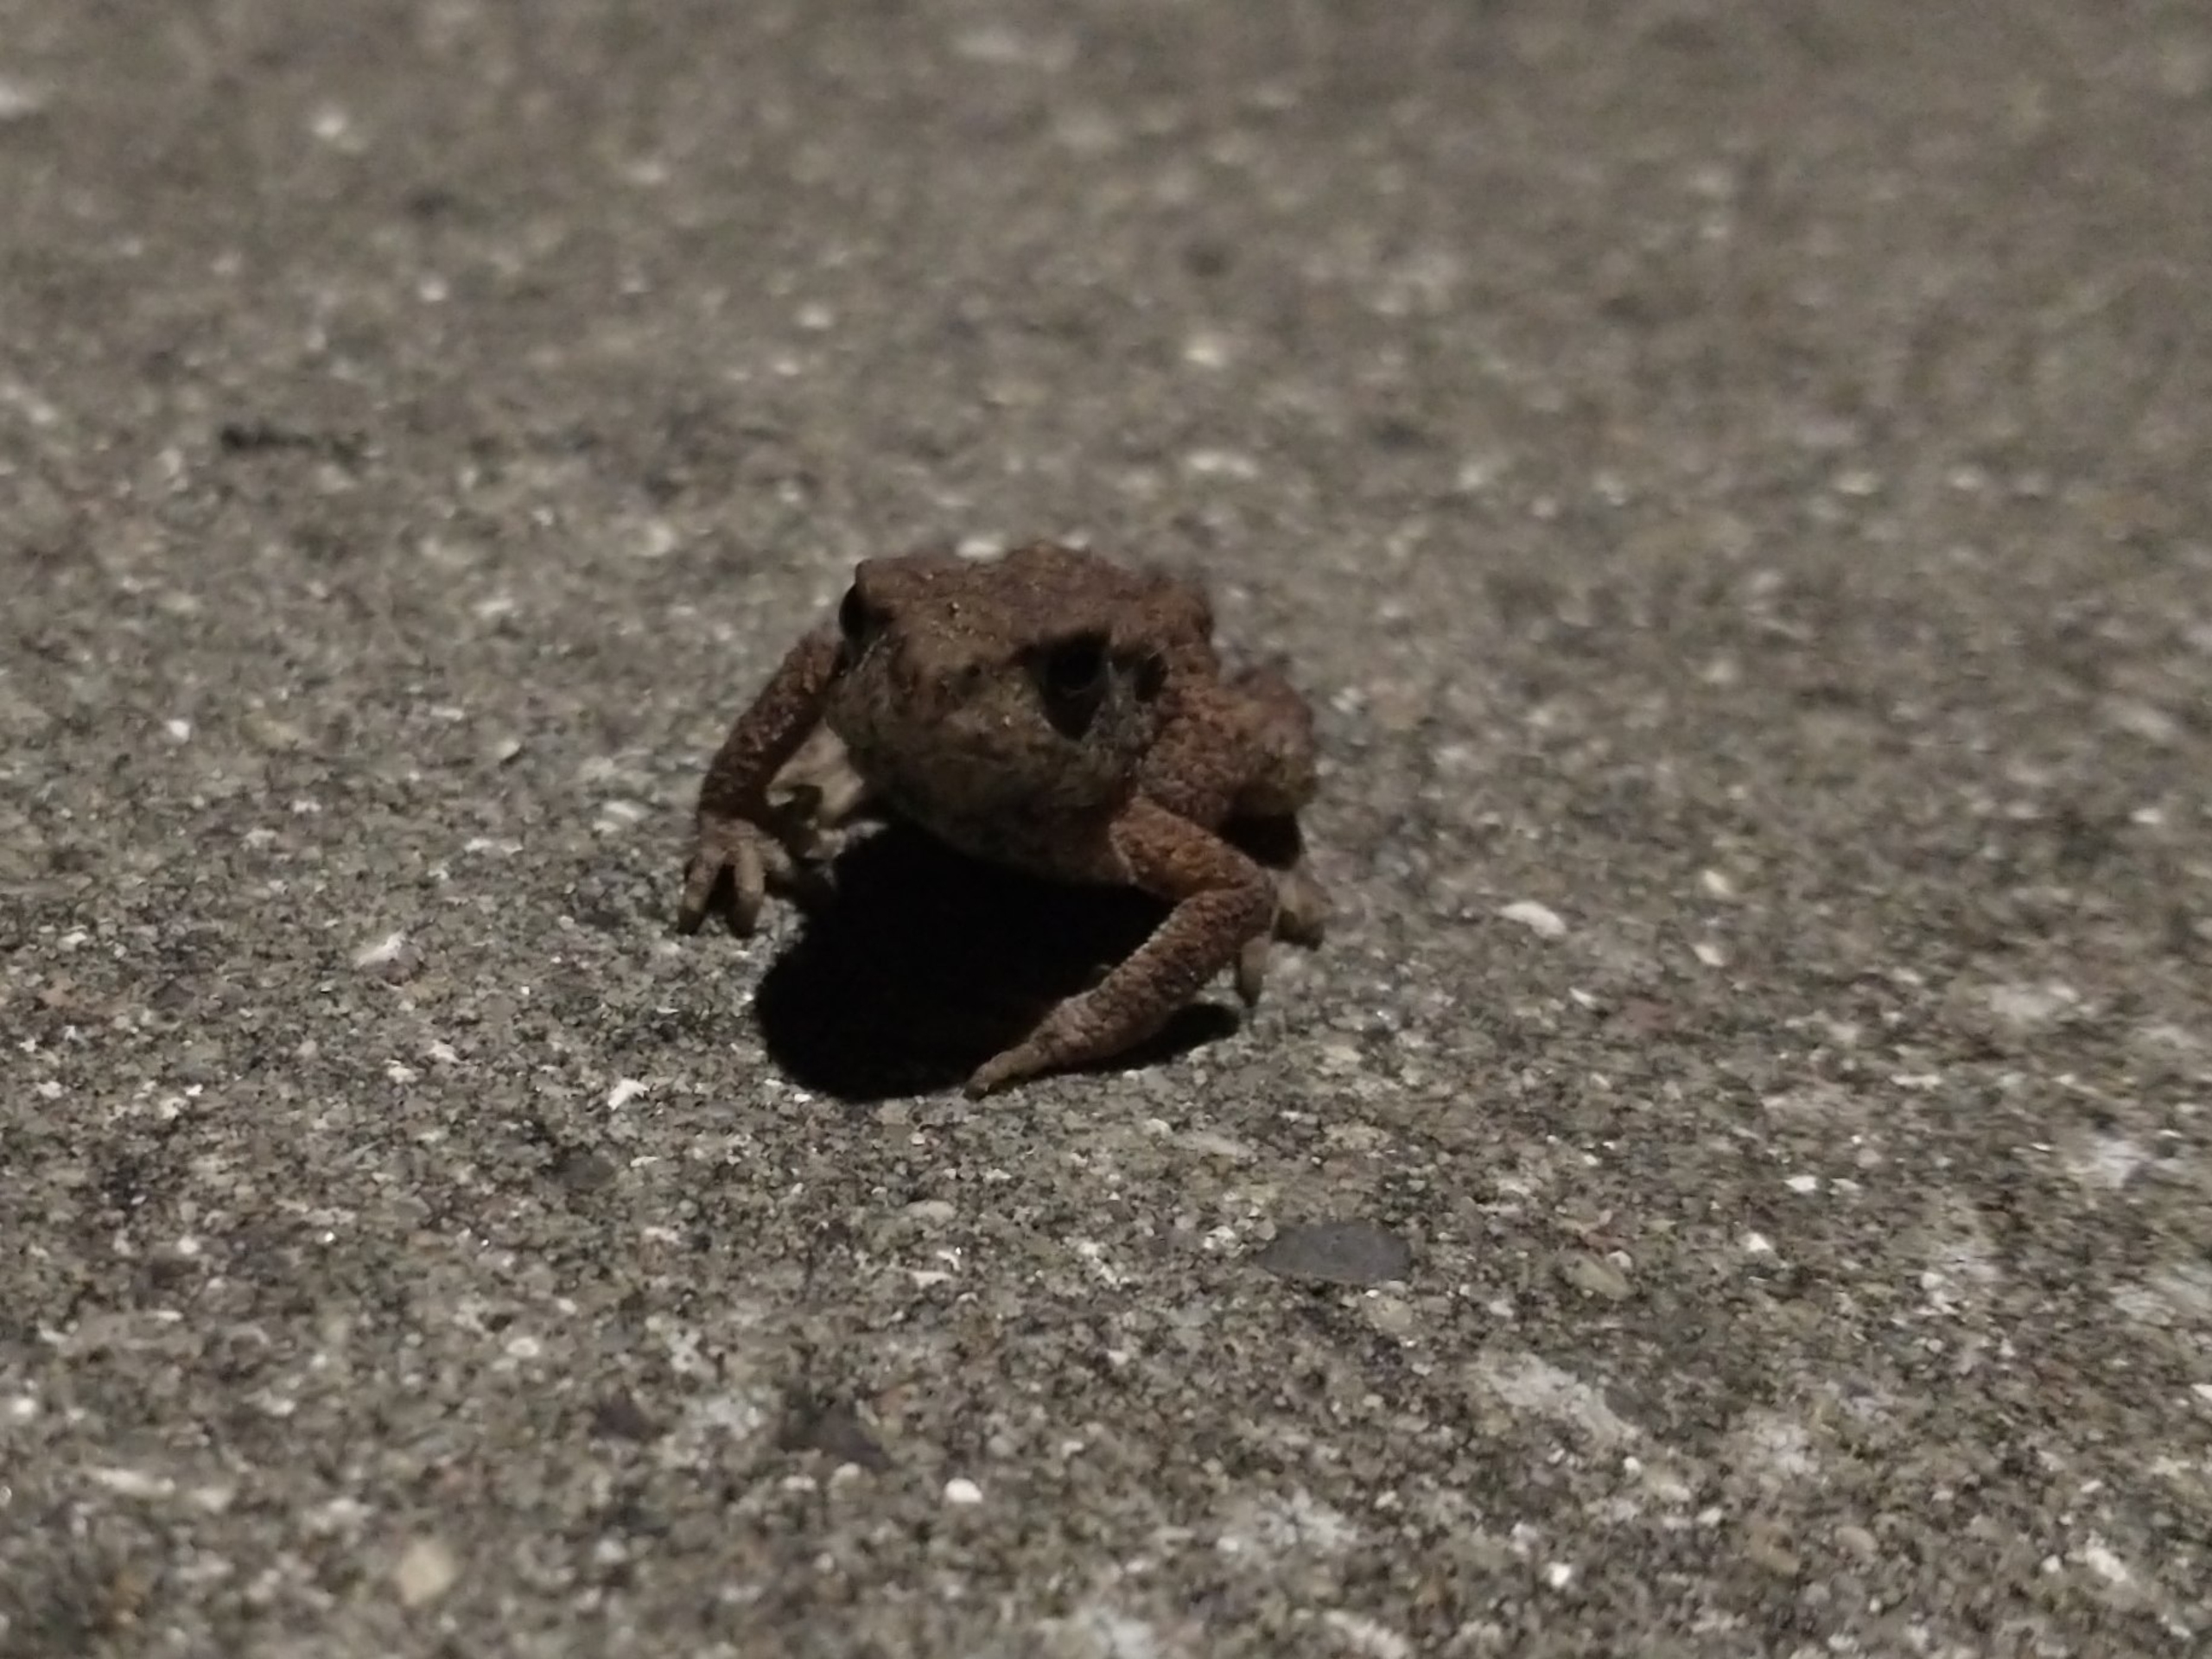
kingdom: Animalia
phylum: Chordata
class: Amphibia
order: Anura
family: Bufonidae
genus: Bufo
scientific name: Bufo bufo
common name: Skrubtudse
